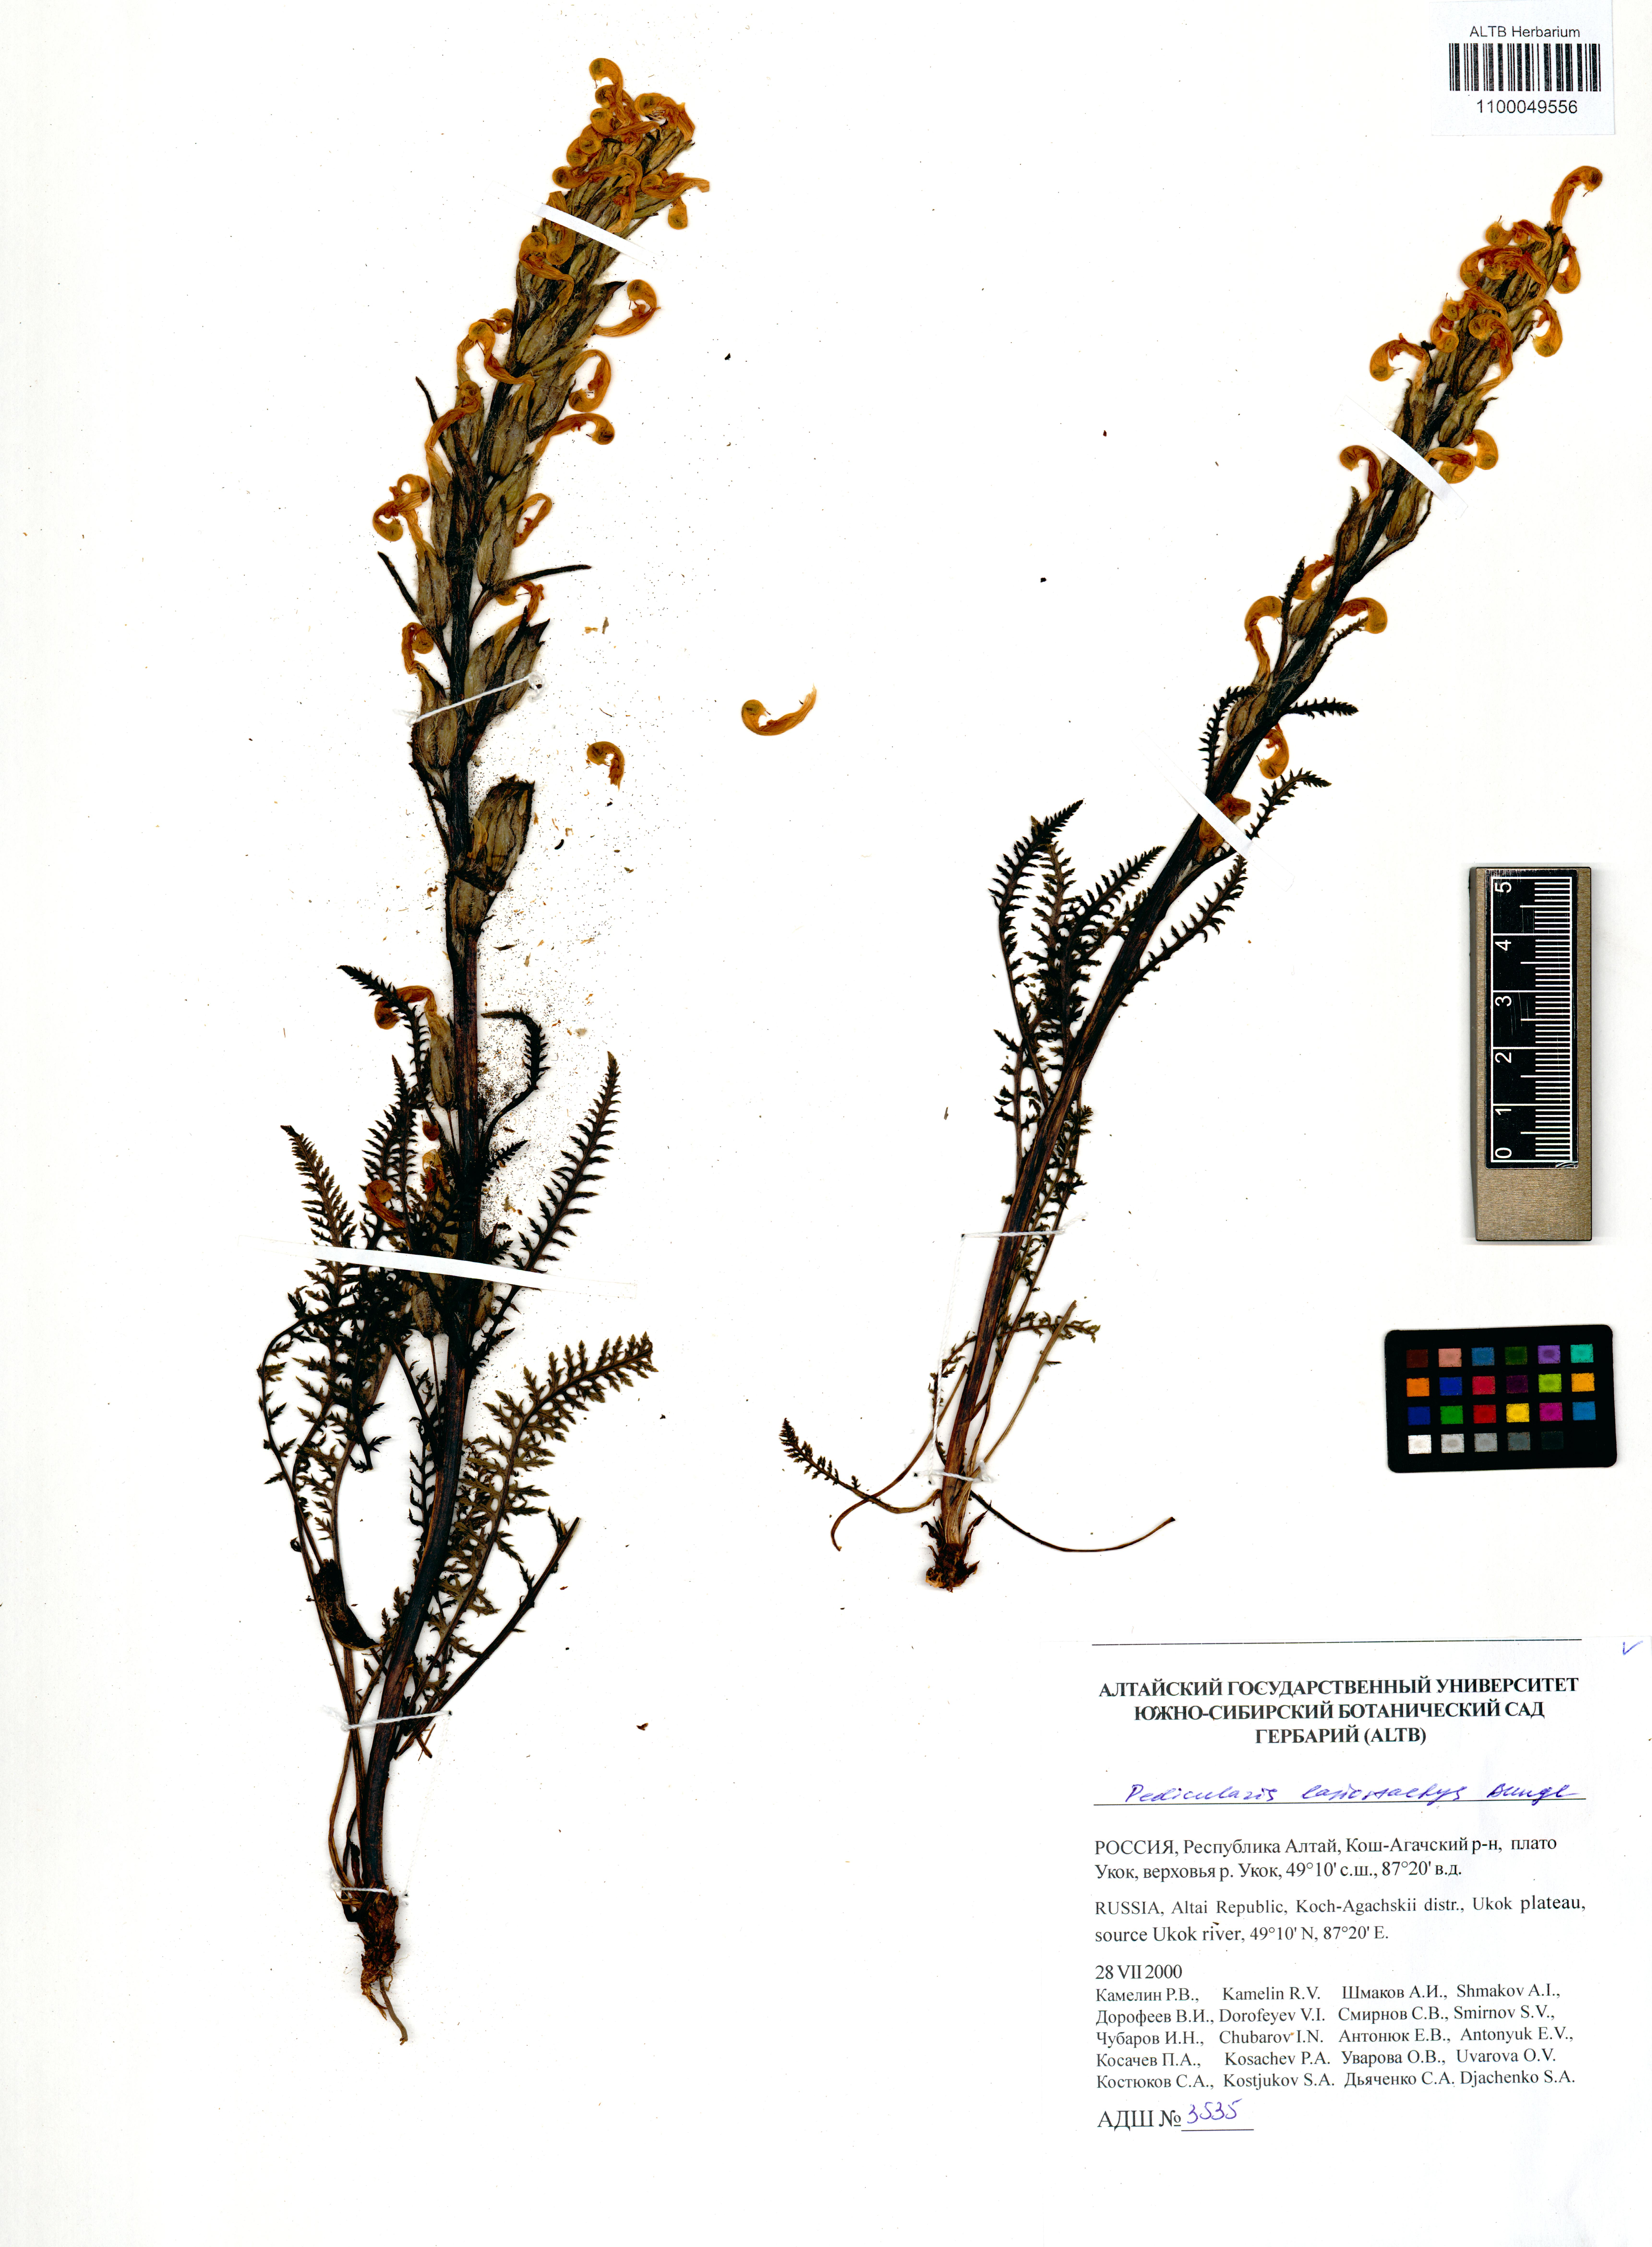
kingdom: Plantae
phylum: Tracheophyta
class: Magnoliopsida
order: Lamiales
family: Orobanchaceae
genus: Pedicularis
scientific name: Pedicularis lasiostachys
